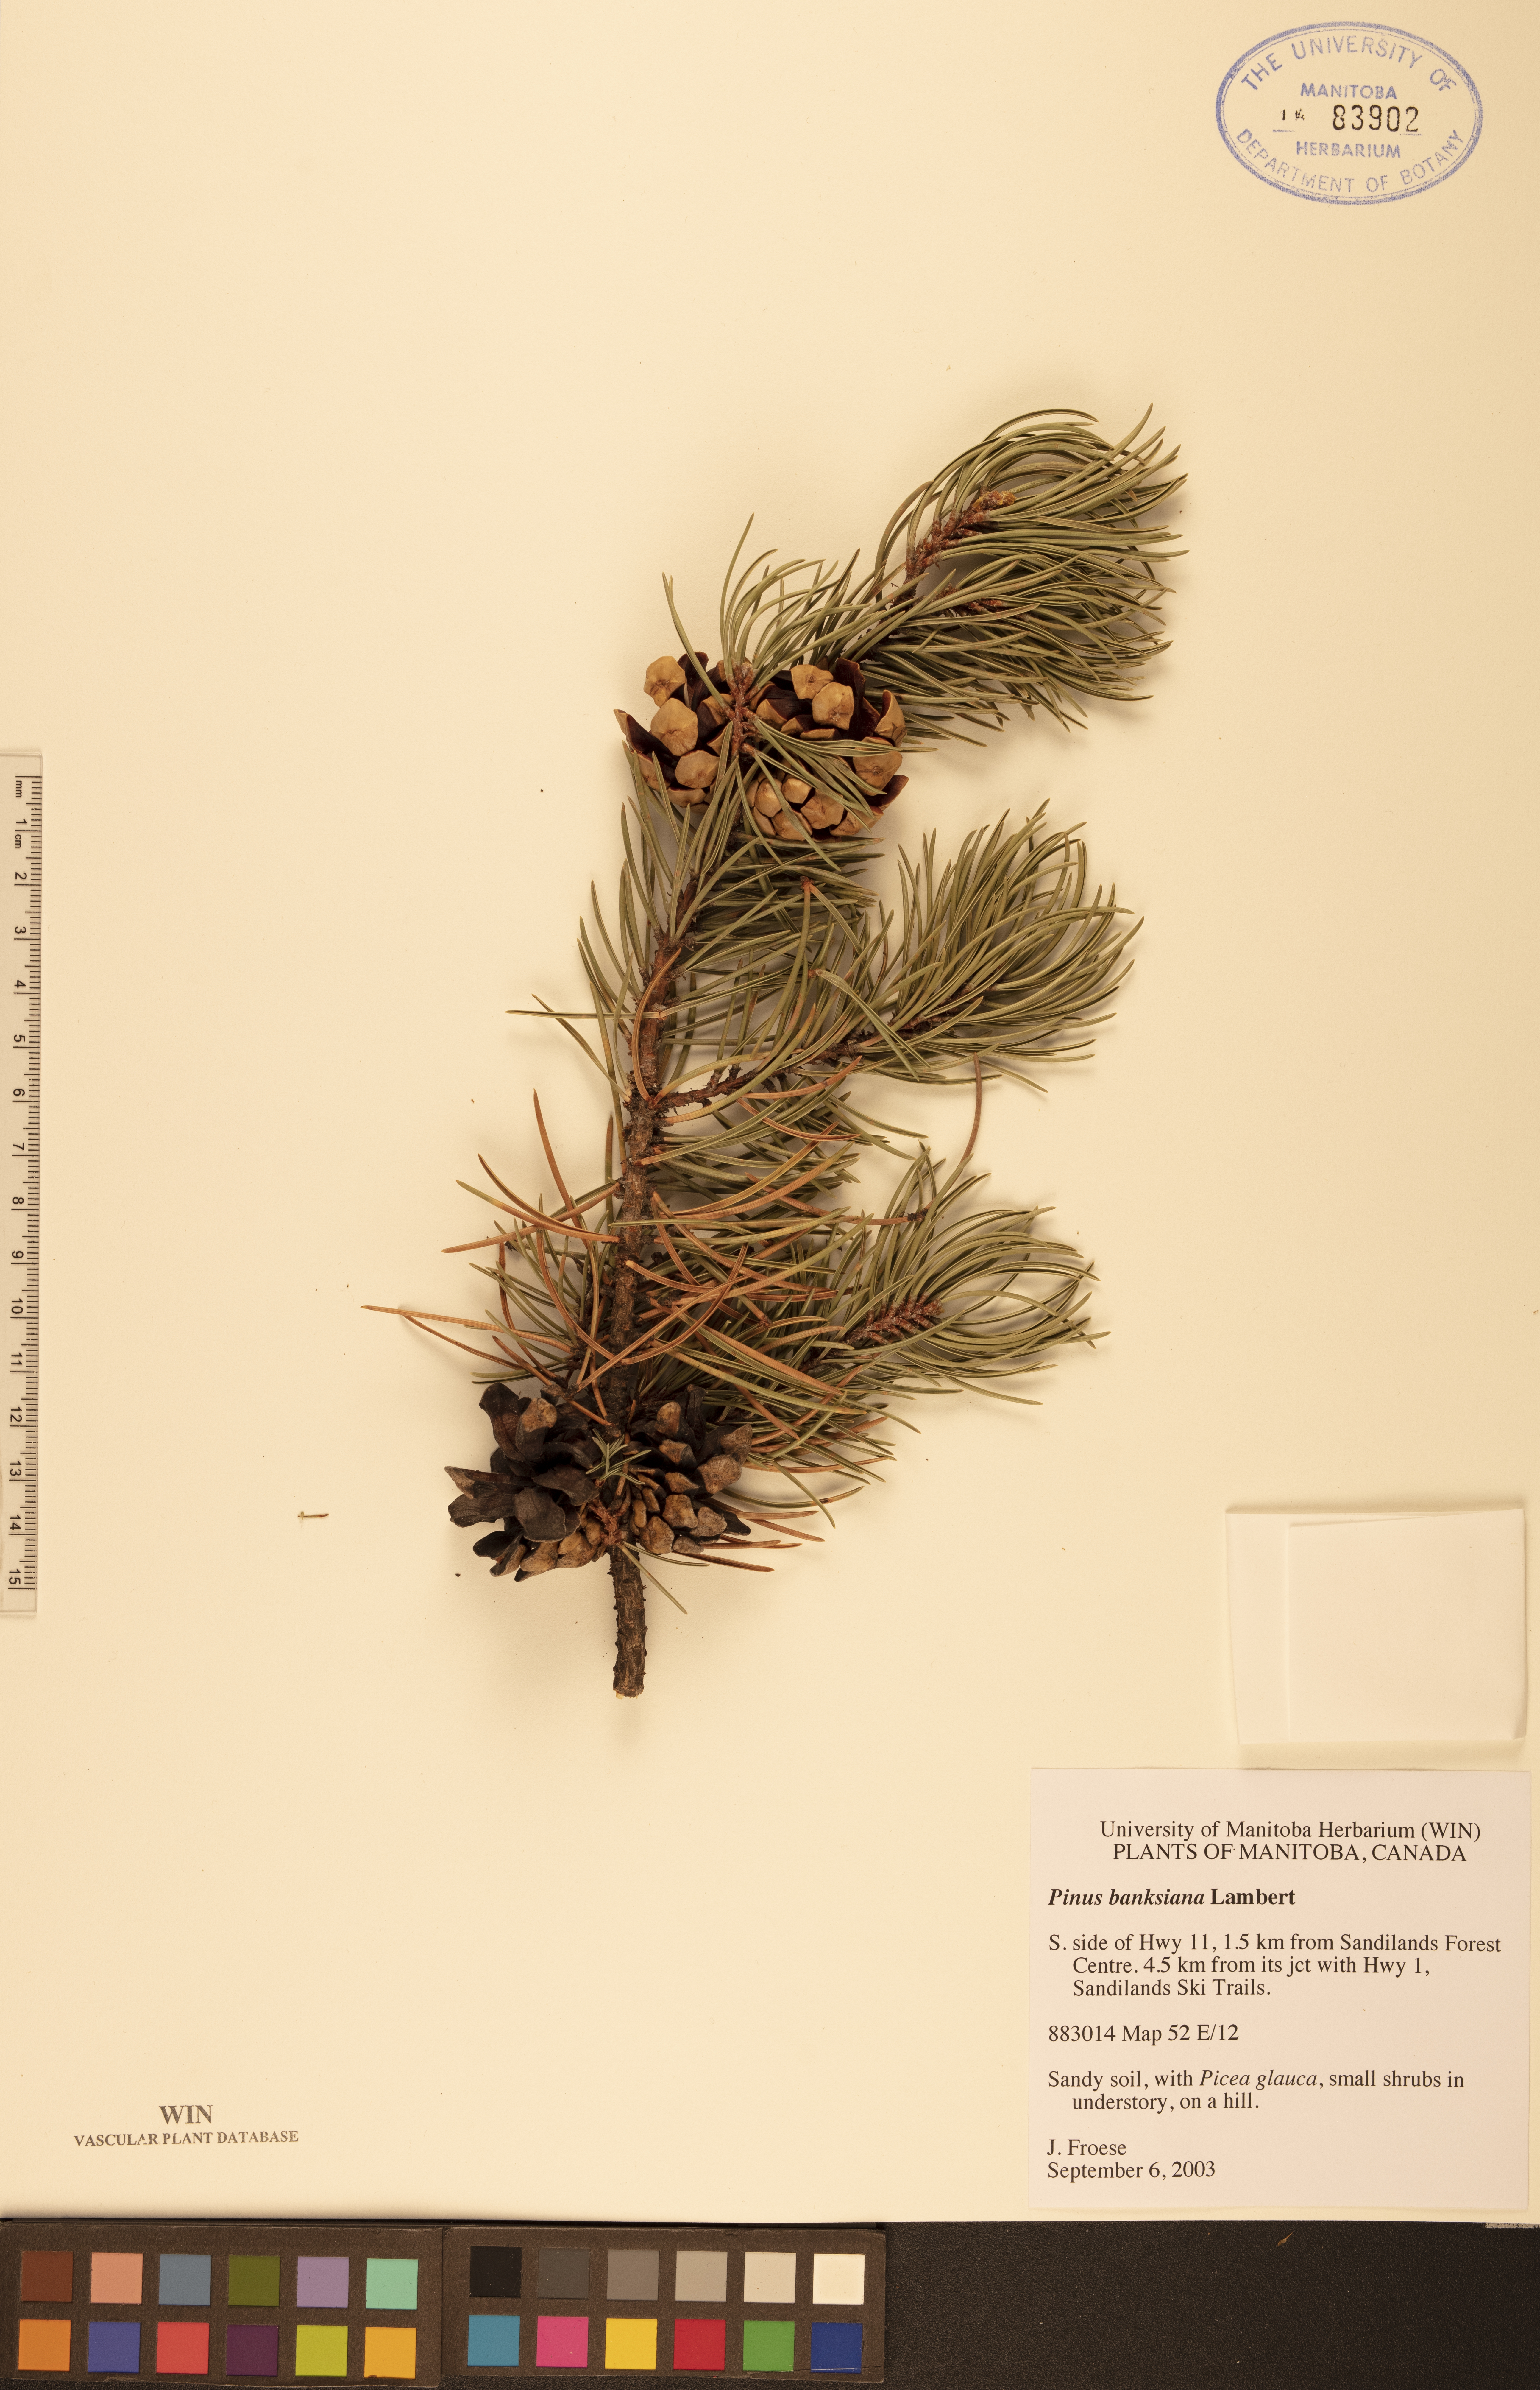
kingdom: Plantae
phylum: Tracheophyta
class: Pinopsida
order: Pinales
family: Pinaceae
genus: Pinus
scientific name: Pinus banksiana
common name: Jack pine
